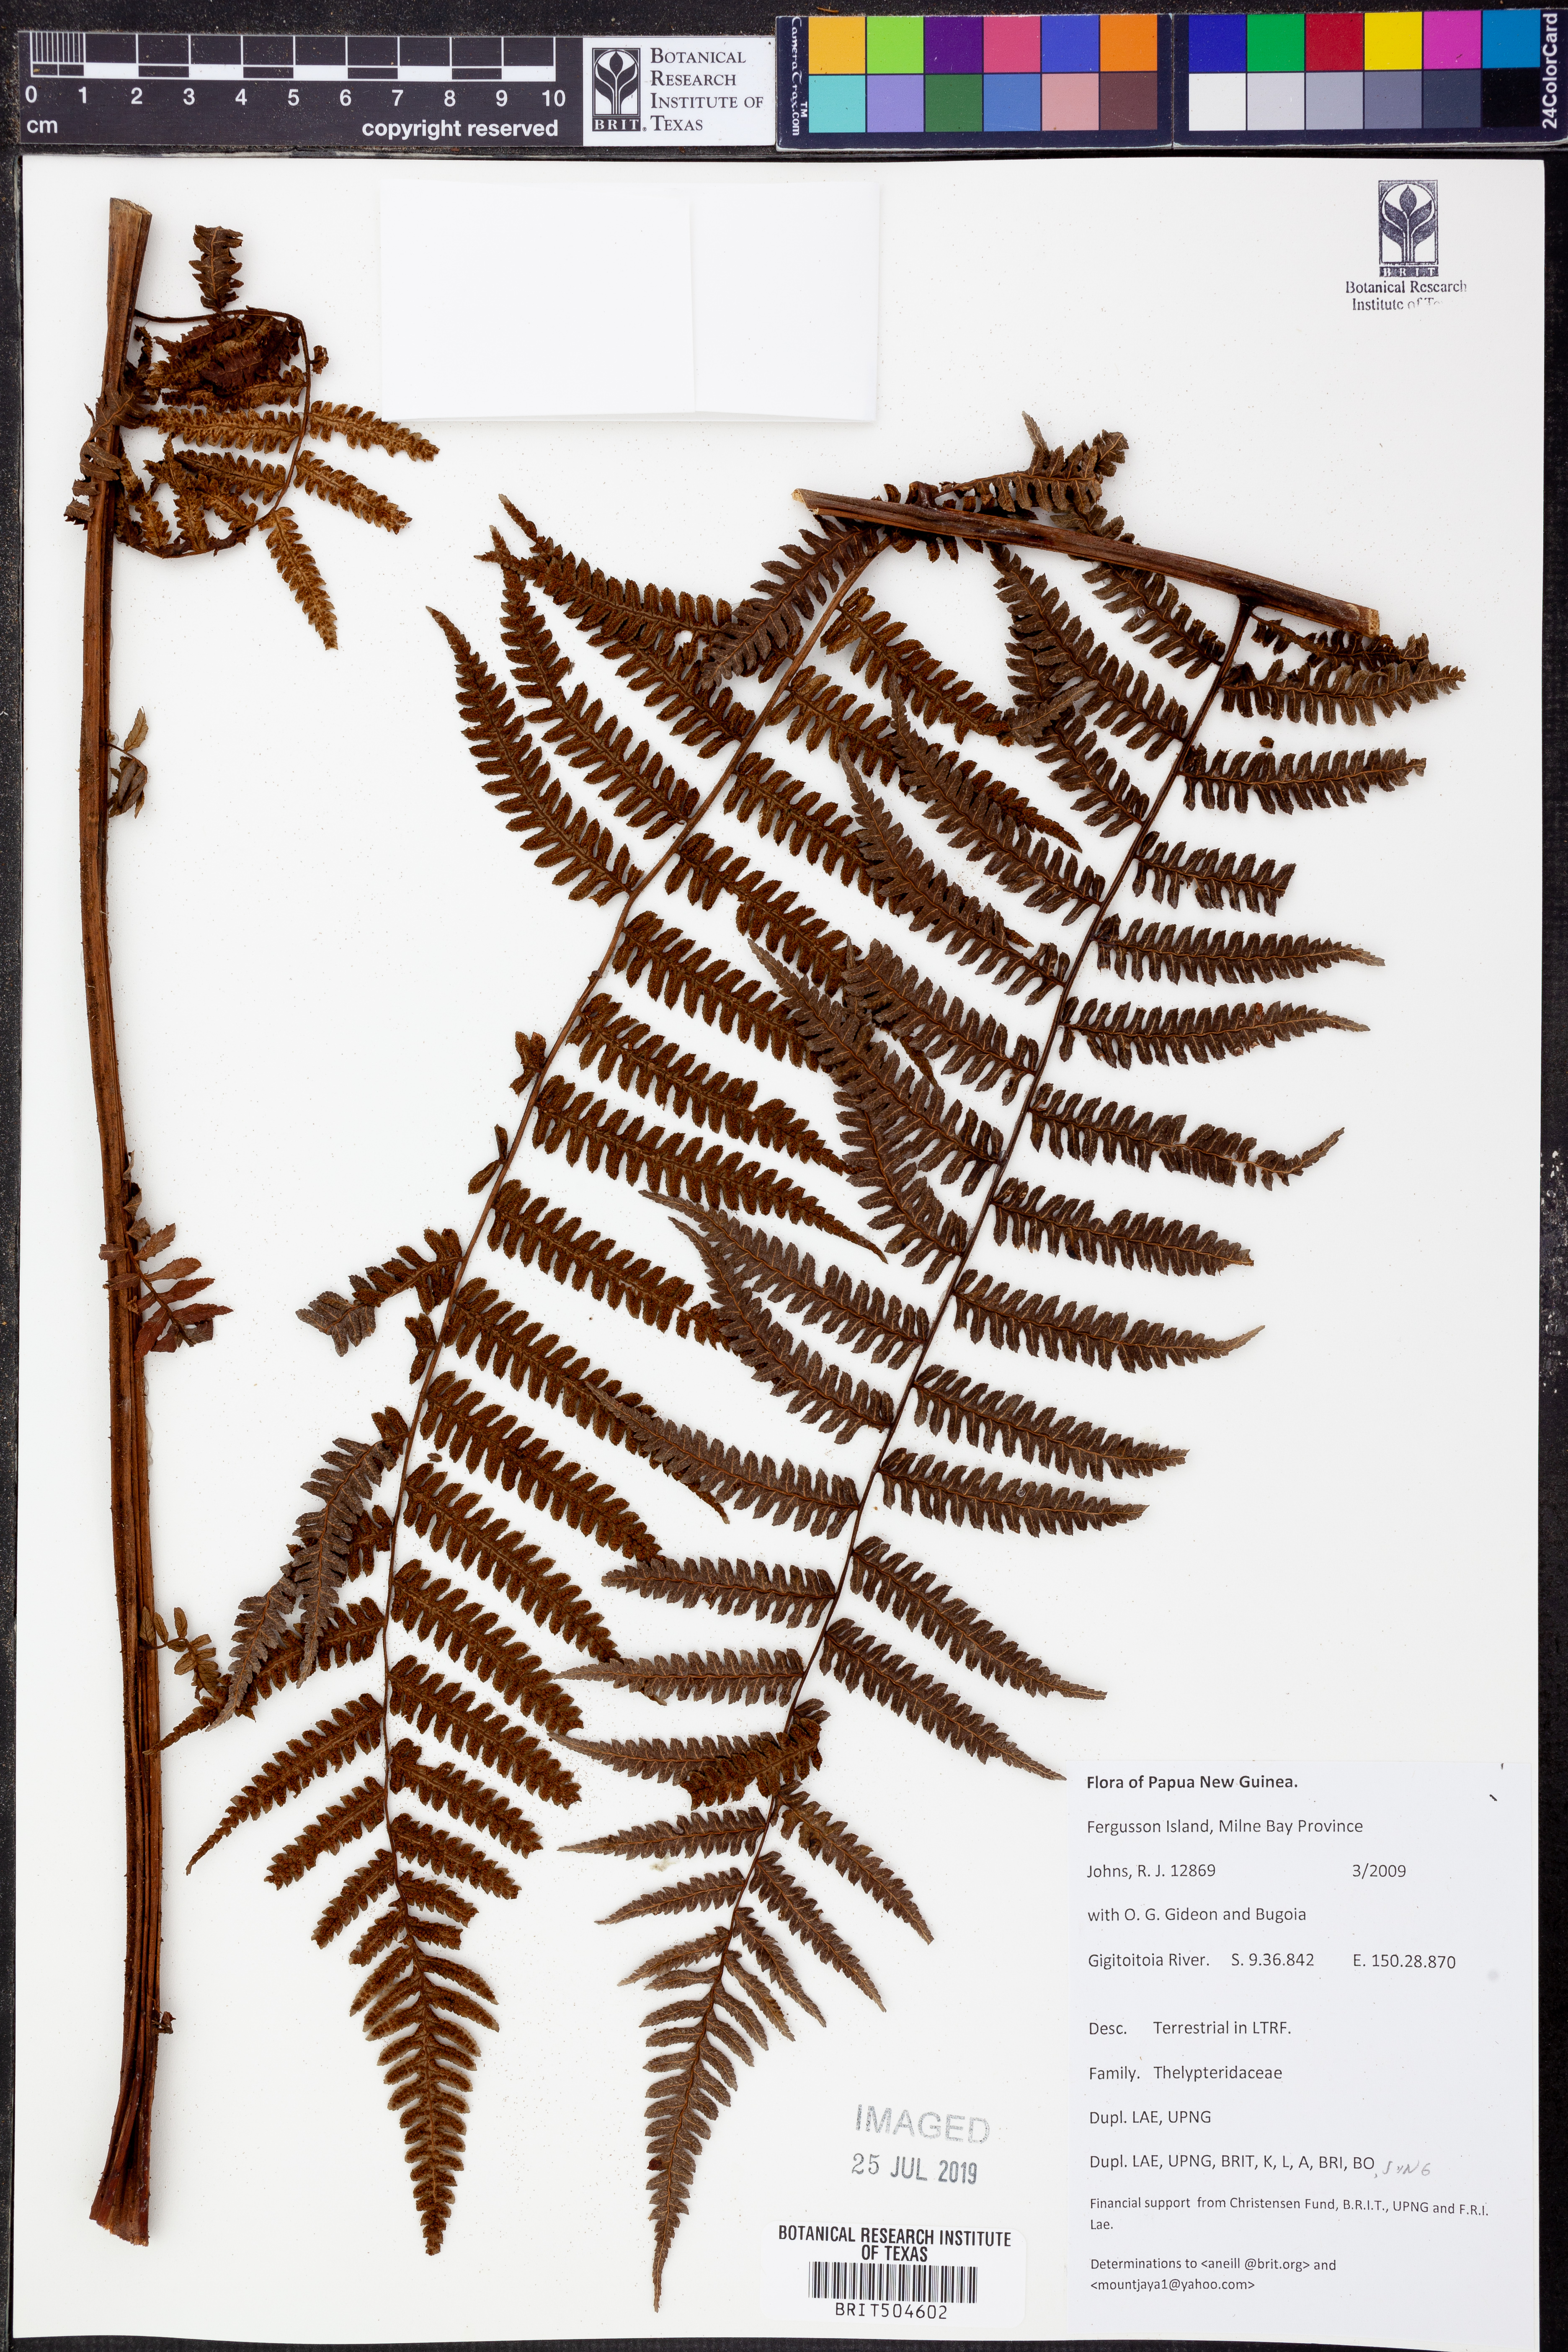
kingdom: Plantae
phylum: Tracheophyta
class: Polypodiopsida
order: Polypodiales
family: Thelypteridaceae
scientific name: Thelypteridaceae
